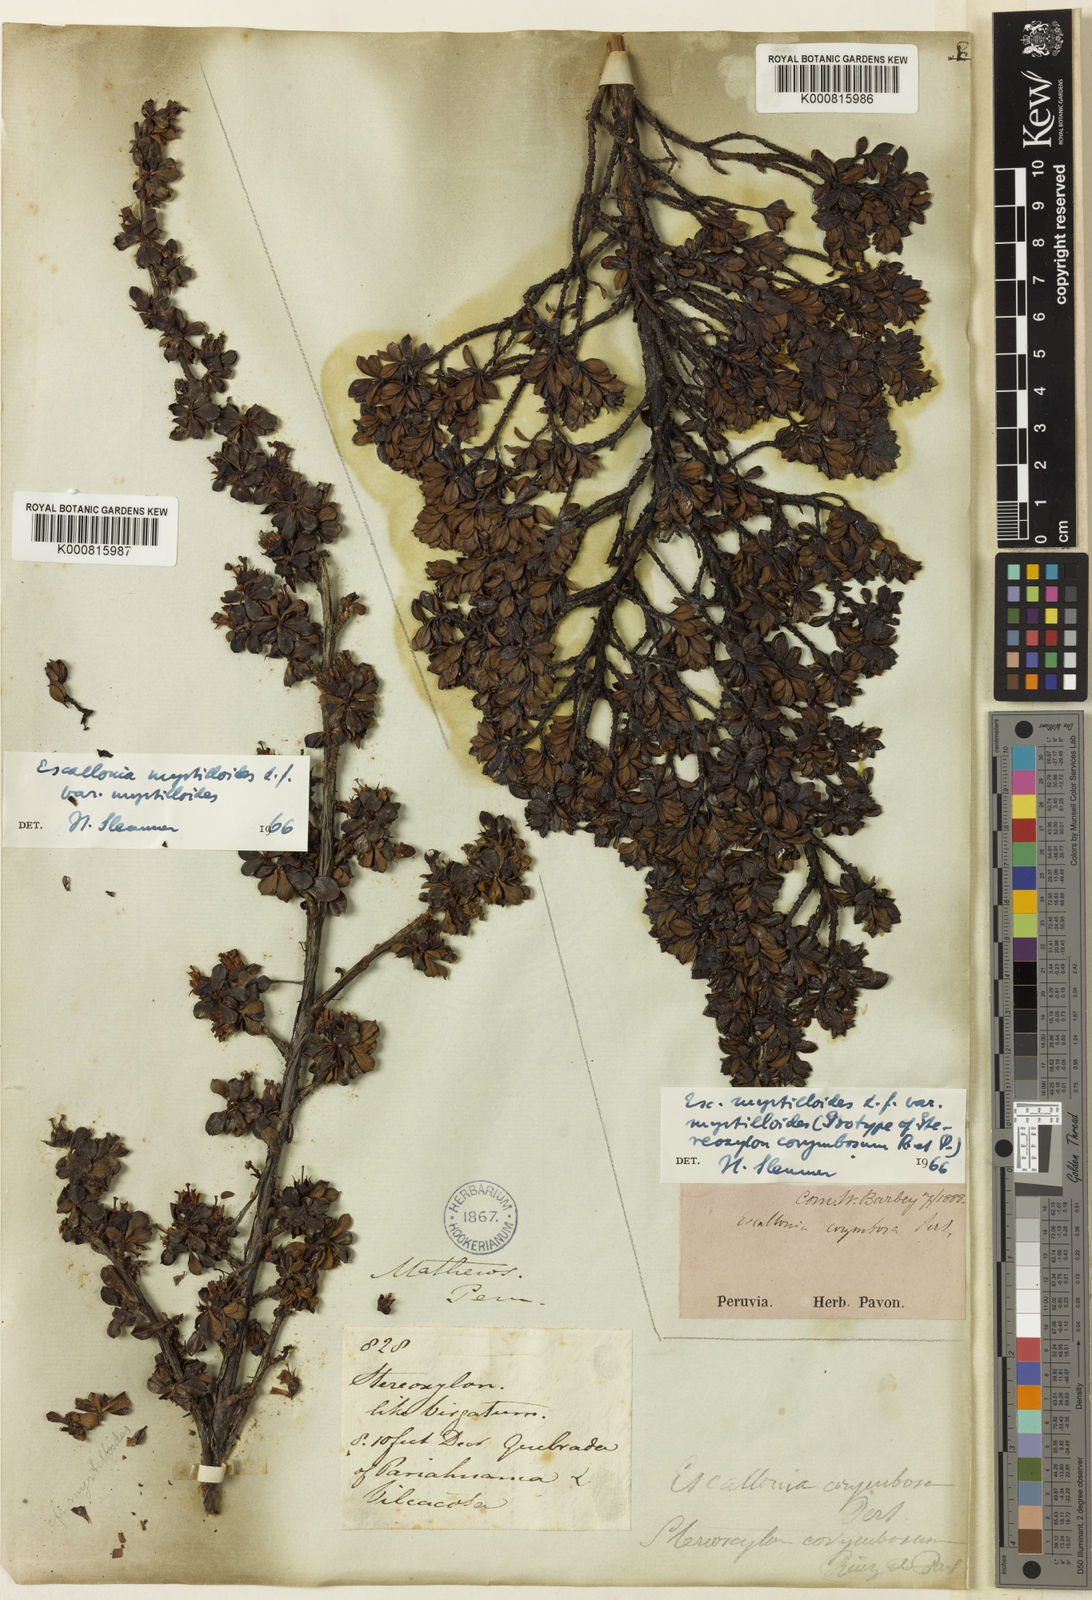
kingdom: Plantae
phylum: Tracheophyta
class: Magnoliopsida
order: Escalloniales
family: Escalloniaceae
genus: Escallonia
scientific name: Escallonia myrtilloides
